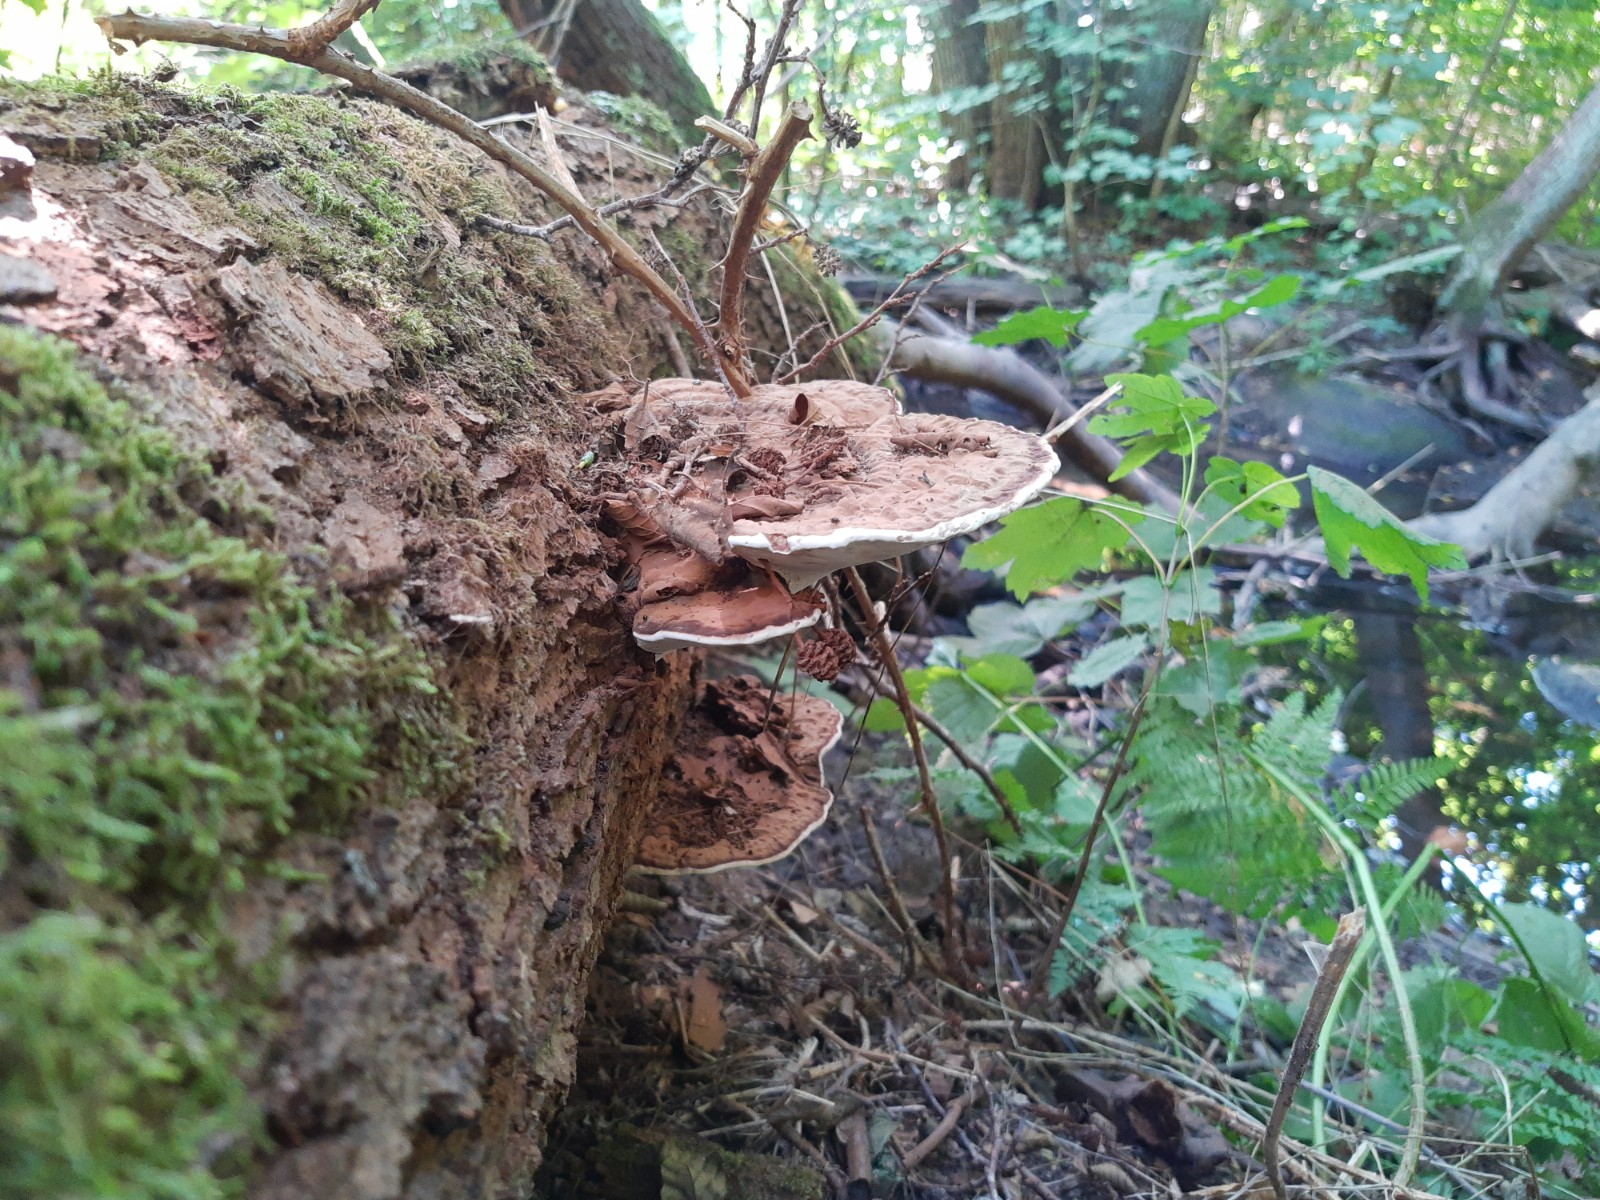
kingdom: Fungi
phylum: Basidiomycota
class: Agaricomycetes
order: Polyporales
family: Polyporaceae
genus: Ganoderma
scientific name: Ganoderma applanatum
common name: flad lakporesvamp
